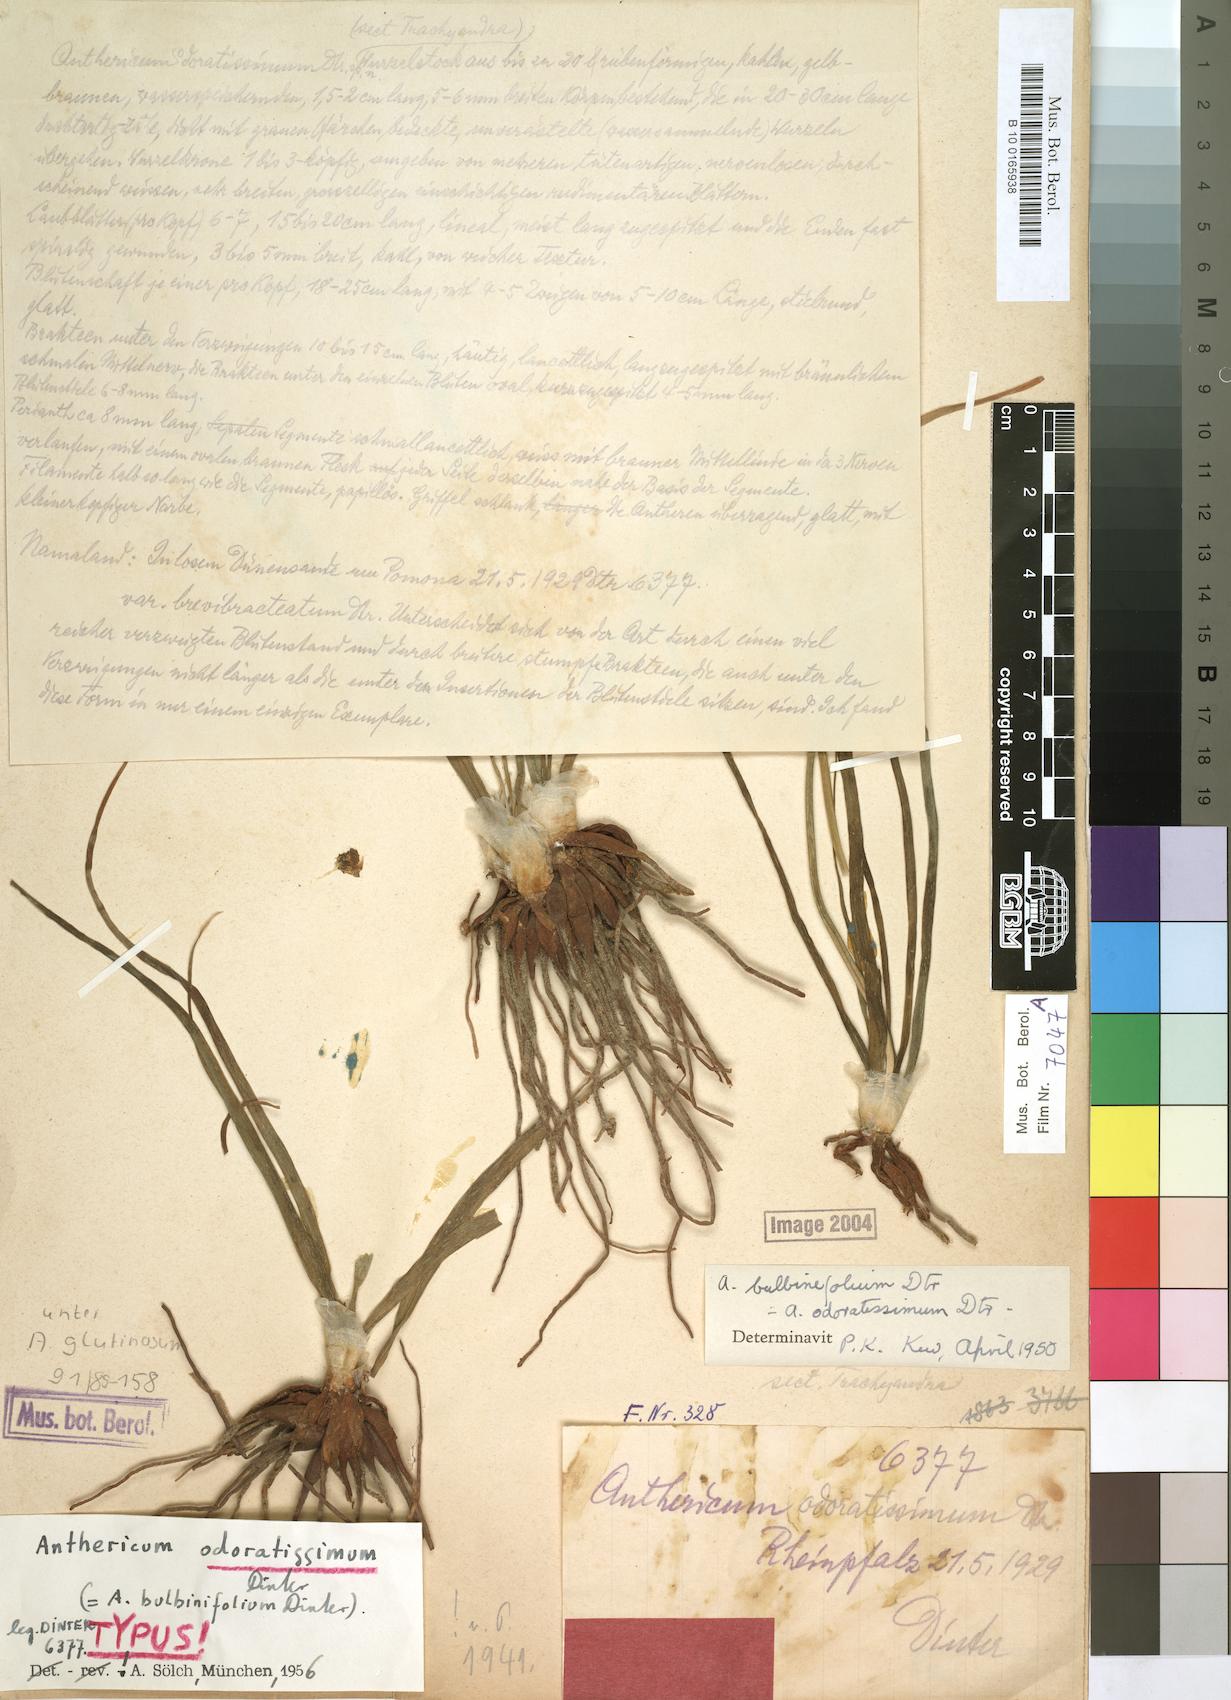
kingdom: Plantae
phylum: Tracheophyta
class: Liliopsida
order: Asparagales
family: Asphodelaceae
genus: Trachyandra
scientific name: Trachyandra laxa
